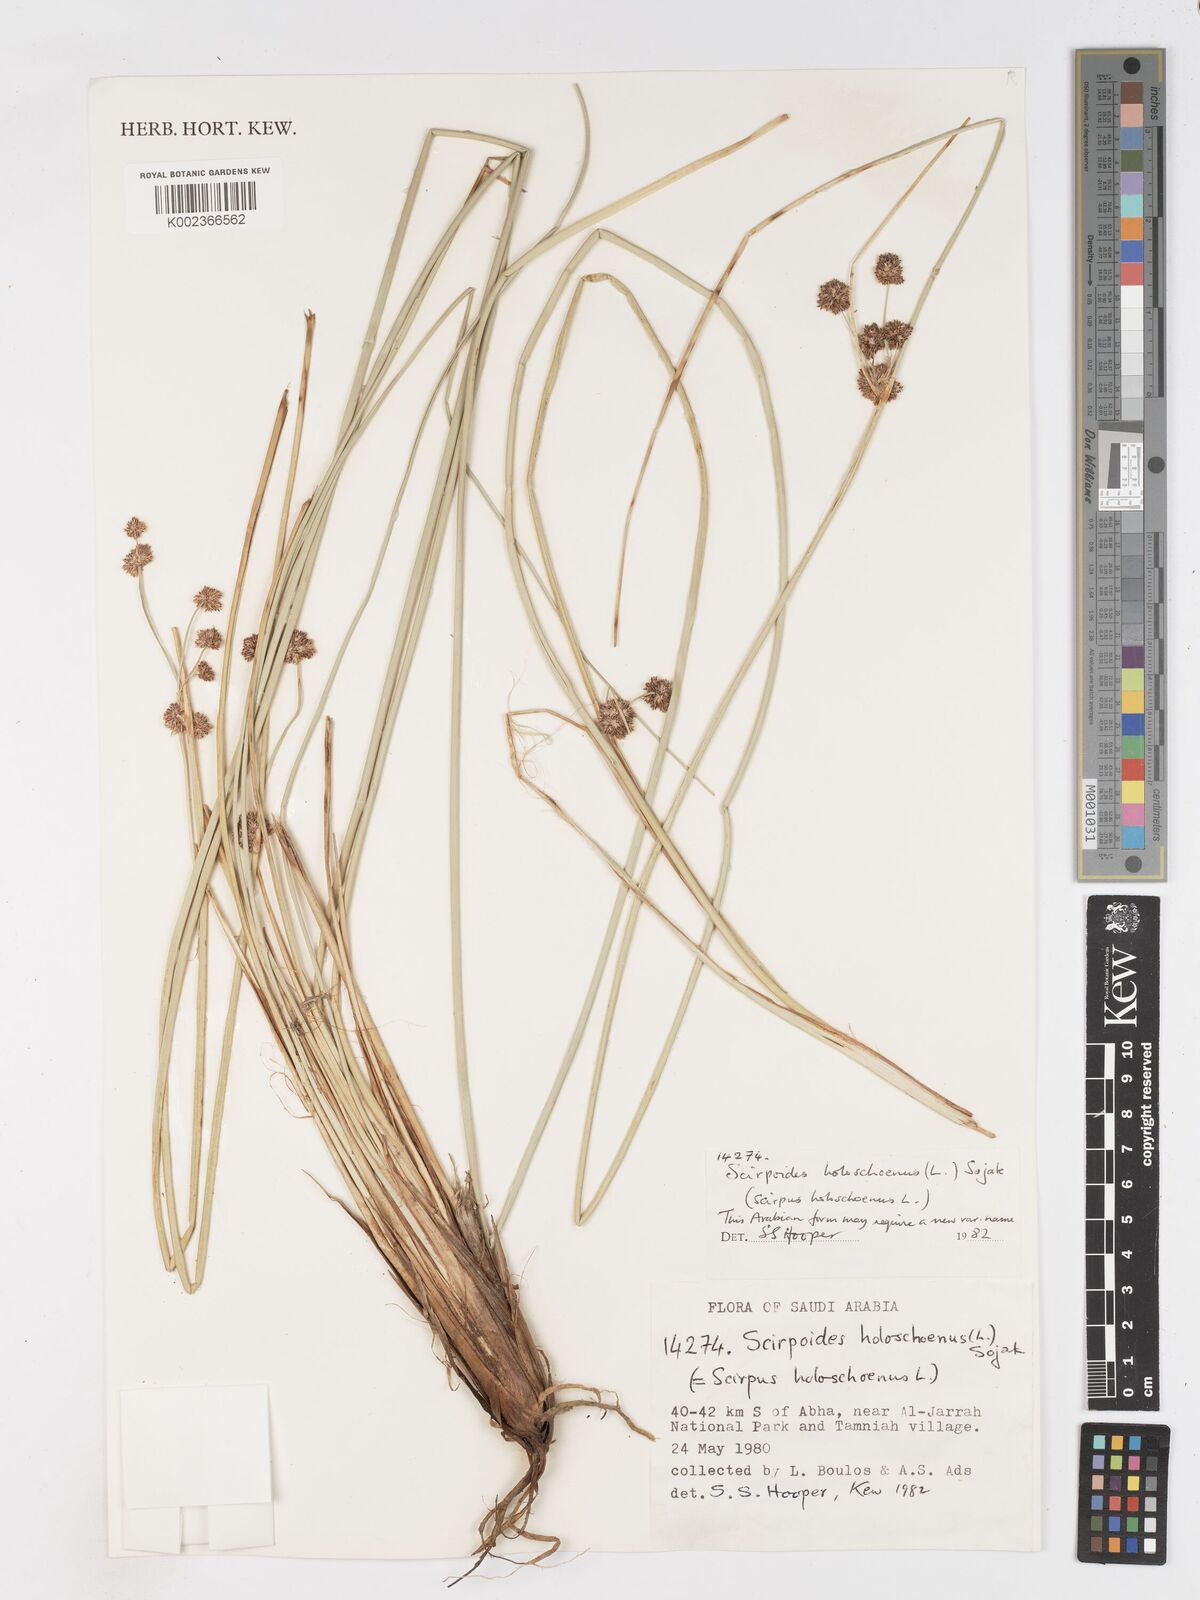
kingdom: Plantae
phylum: Tracheophyta
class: Liliopsida
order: Poales
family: Cyperaceae
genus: Scirpoides
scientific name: Scirpoides holoschoenus
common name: Round-headed club-rush
